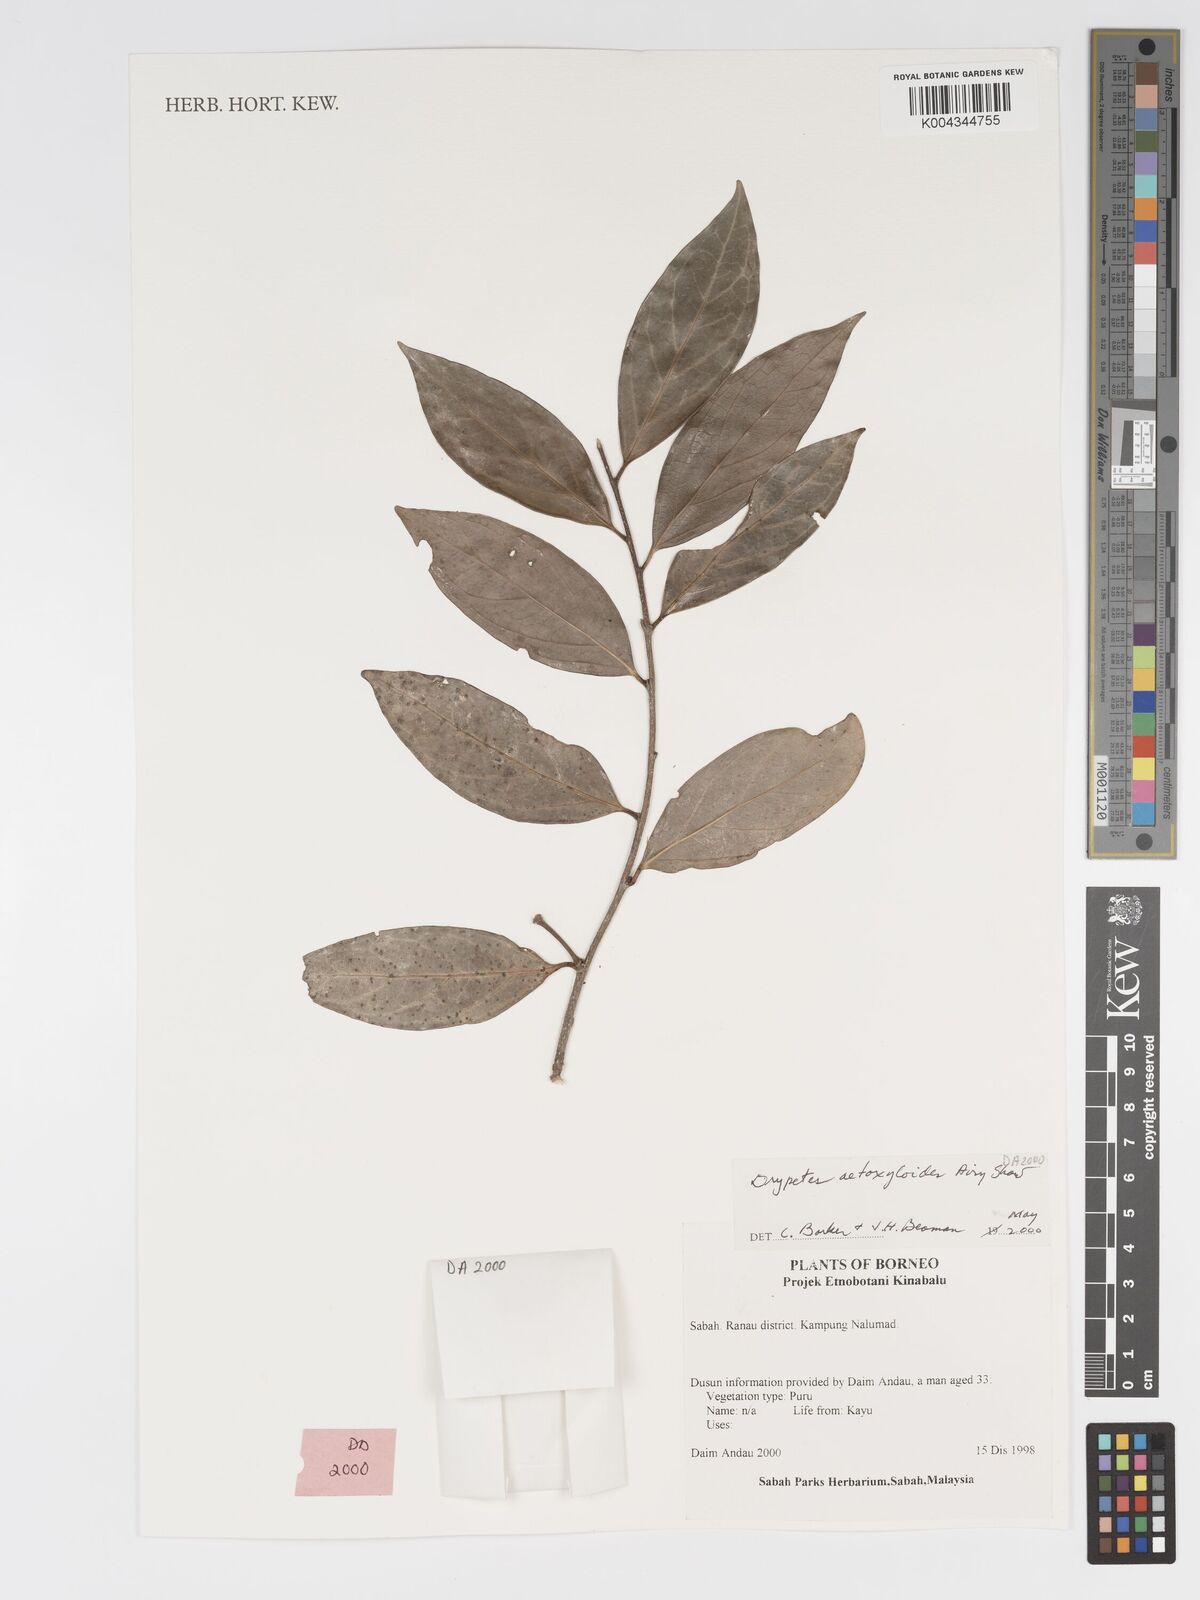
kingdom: Plantae
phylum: Tracheophyta
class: Magnoliopsida
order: Malpighiales
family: Putranjivaceae
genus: Drypetes
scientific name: Drypetes aetoxyloides
